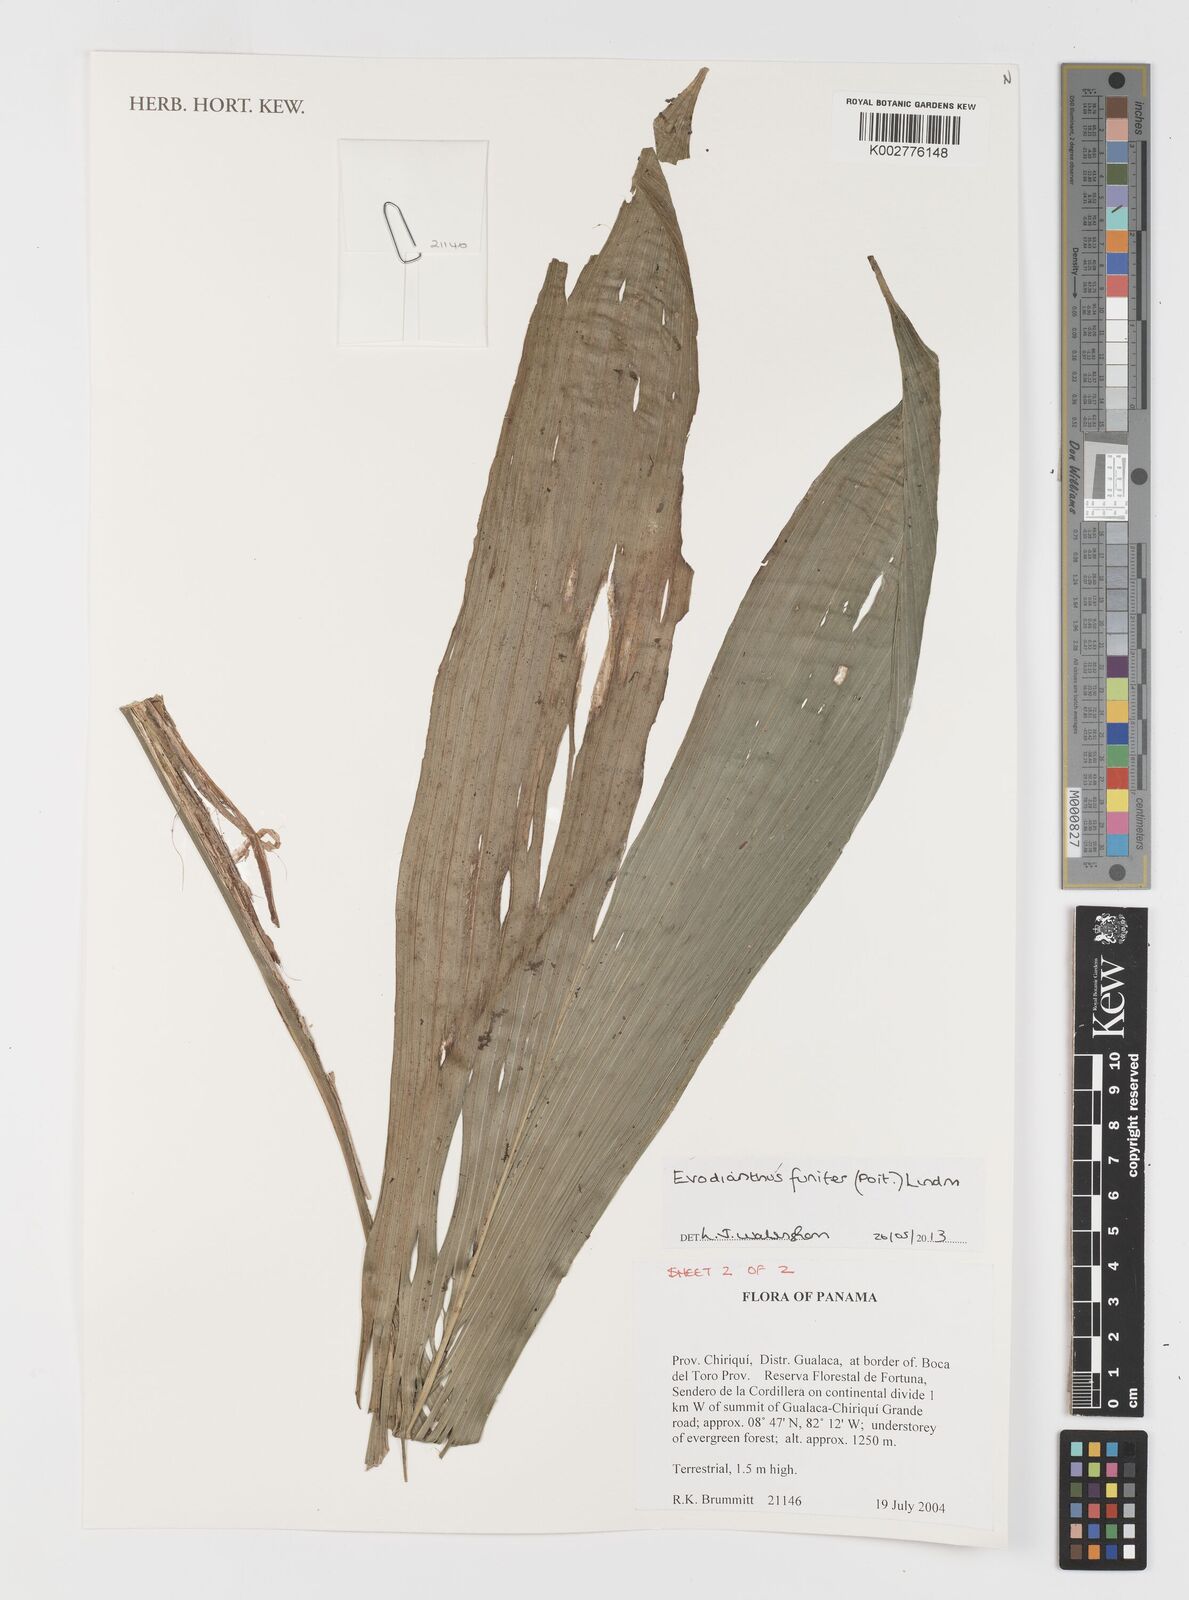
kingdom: Plantae
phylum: Tracheophyta
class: Liliopsida
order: Pandanales
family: Cyclanthaceae
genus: Evodianthus
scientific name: Evodianthus funifer
